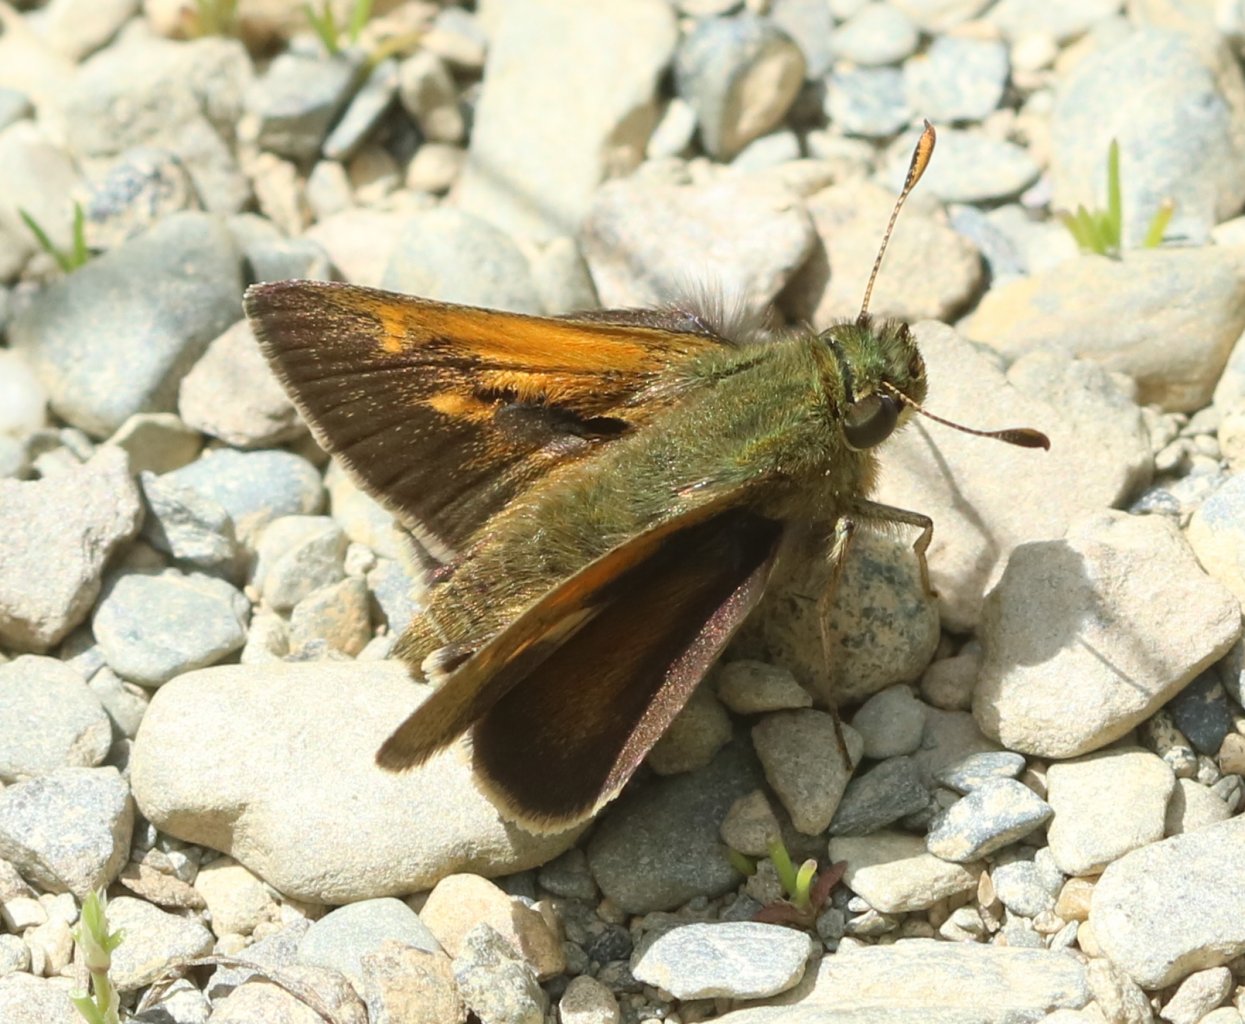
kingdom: Animalia
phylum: Arthropoda
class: Insecta
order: Lepidoptera
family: Hesperiidae
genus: Polites
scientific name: Polites themistocles
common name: Tawny-edged Skipper
